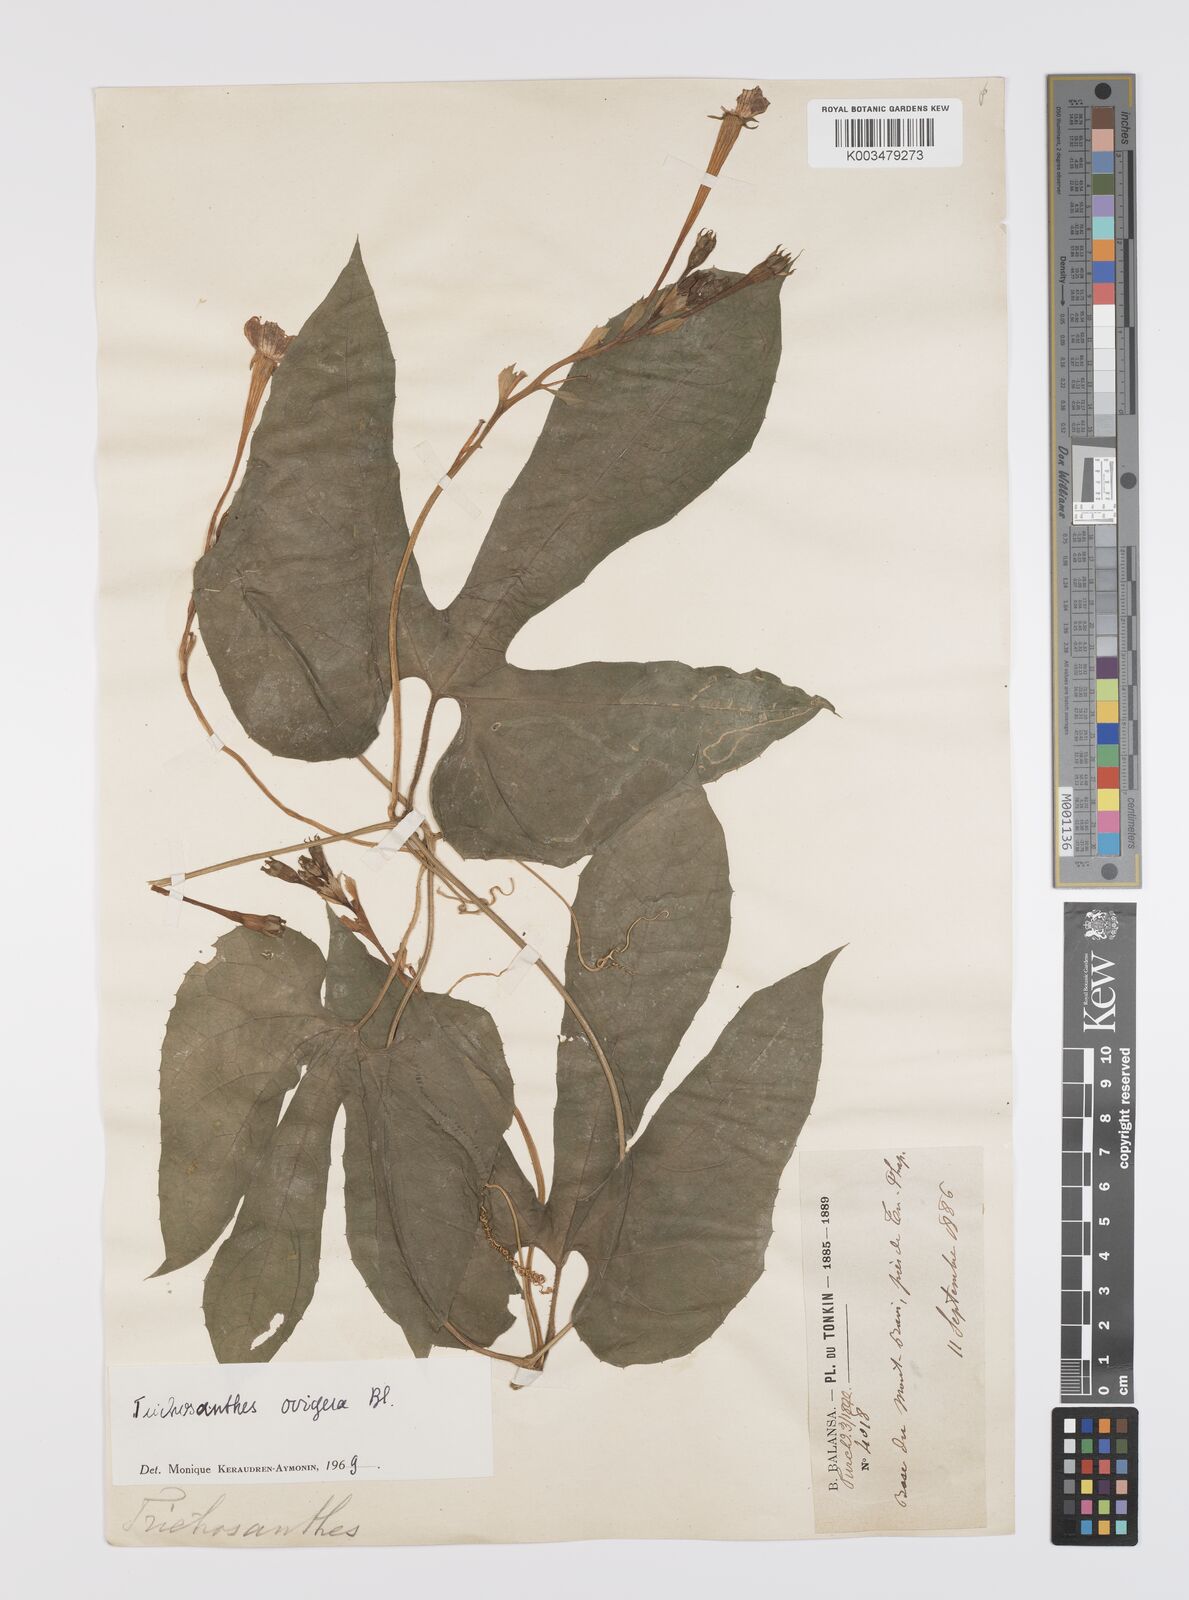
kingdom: Plantae
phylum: Tracheophyta
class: Magnoliopsida
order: Cucurbitales
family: Cucurbitaceae
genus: Trichosanthes
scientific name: Trichosanthes ovigera
